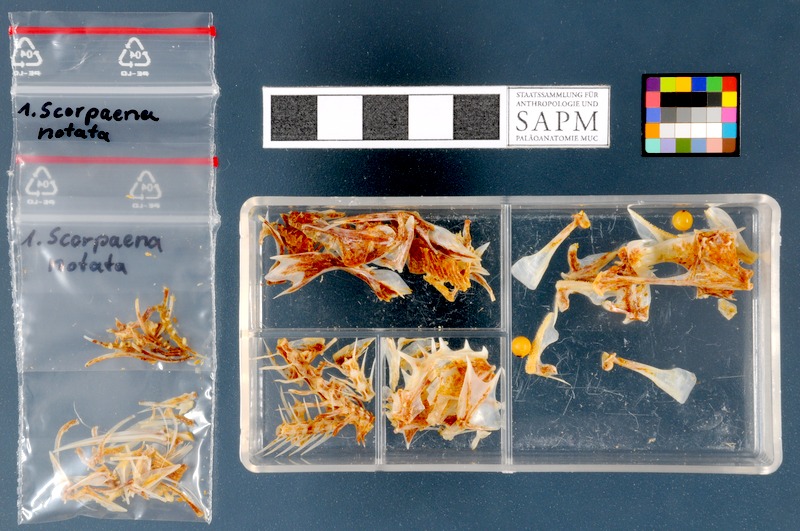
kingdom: Animalia
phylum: Chordata
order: Scorpaeniformes
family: Scorpaenidae
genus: Scorpaena
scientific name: Scorpaena notata
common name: Small red scorpionfish
